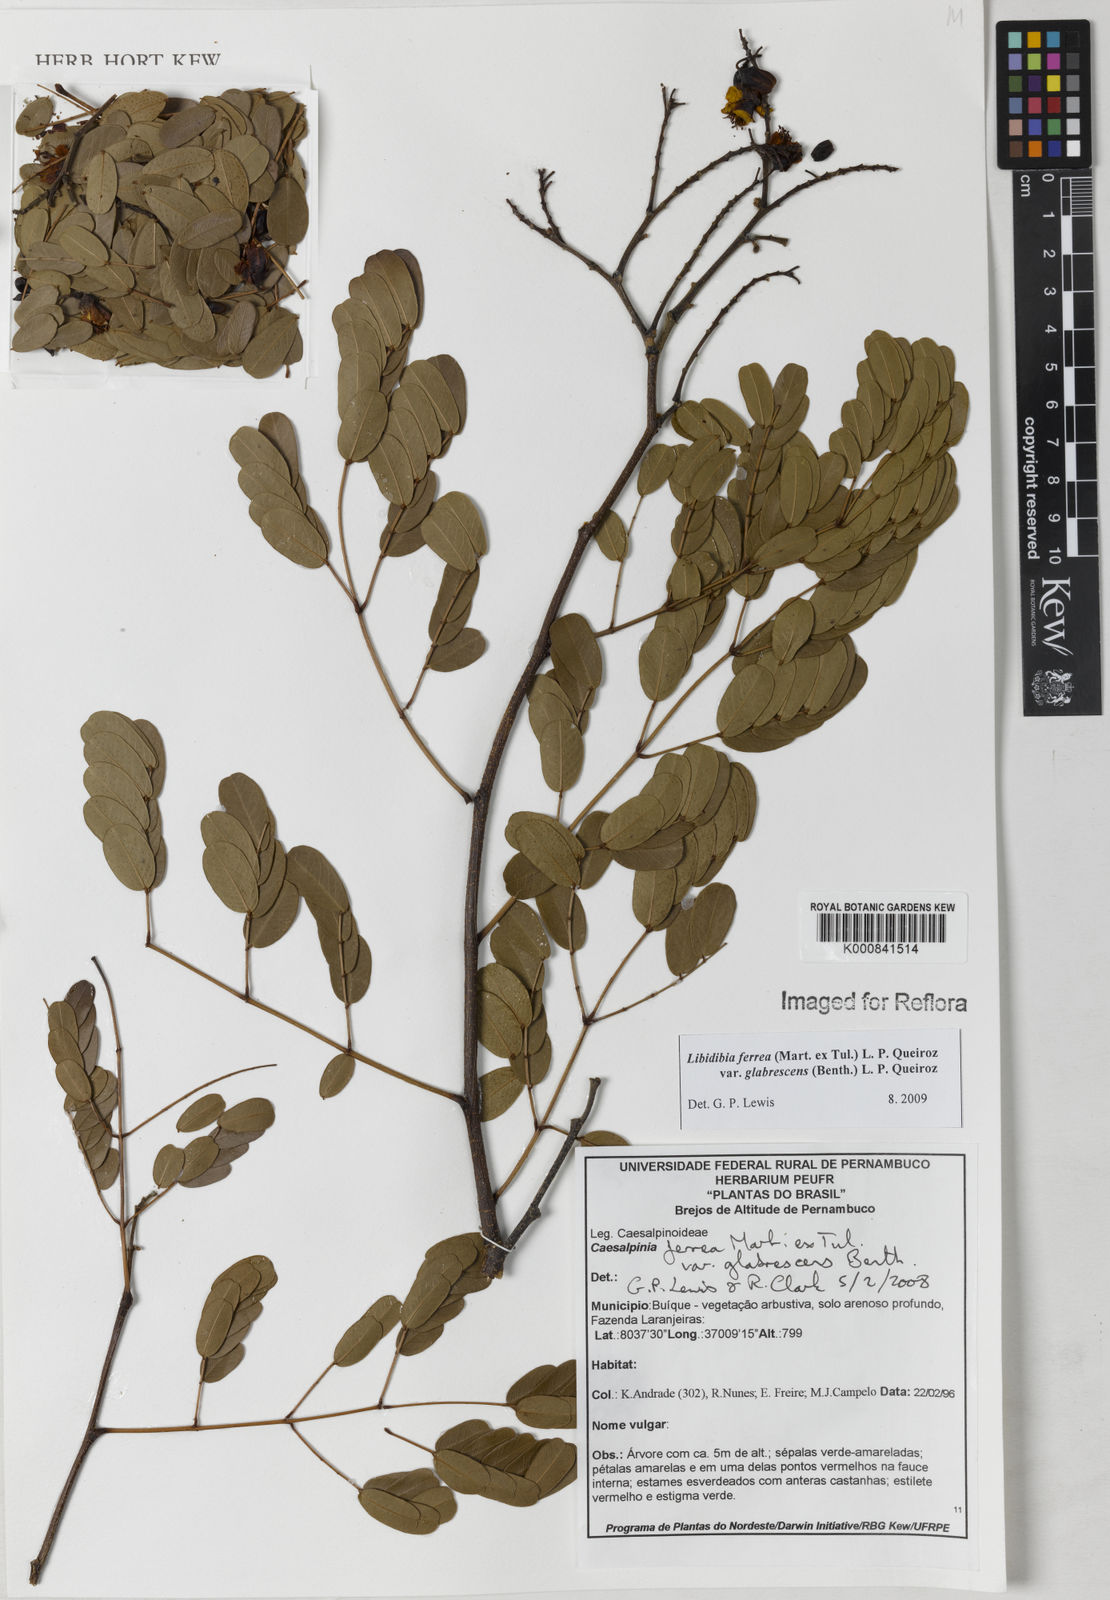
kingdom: Plantae
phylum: Tracheophyta
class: Magnoliopsida
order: Fabales
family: Fabaceae
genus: Libidibia
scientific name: Libidibia ferrea
